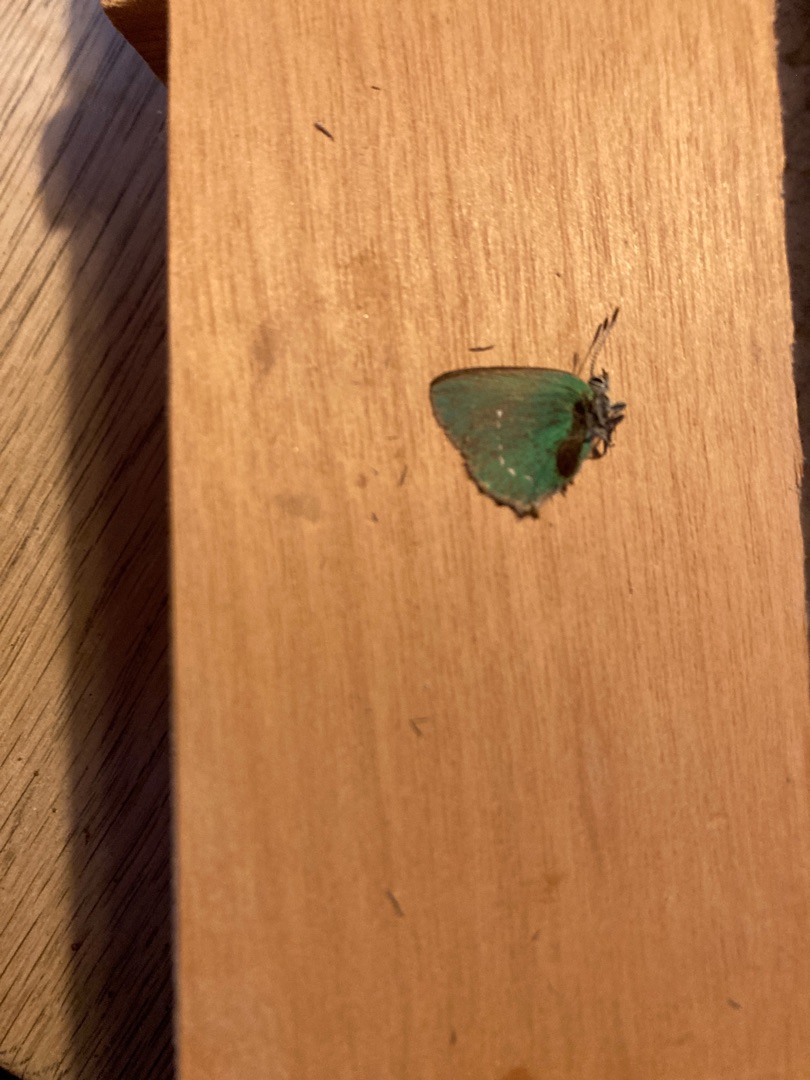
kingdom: Animalia
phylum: Arthropoda
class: Insecta
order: Lepidoptera
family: Lycaenidae
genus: Callophrys
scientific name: Callophrys rubi
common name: Grøn busksommerfugl
